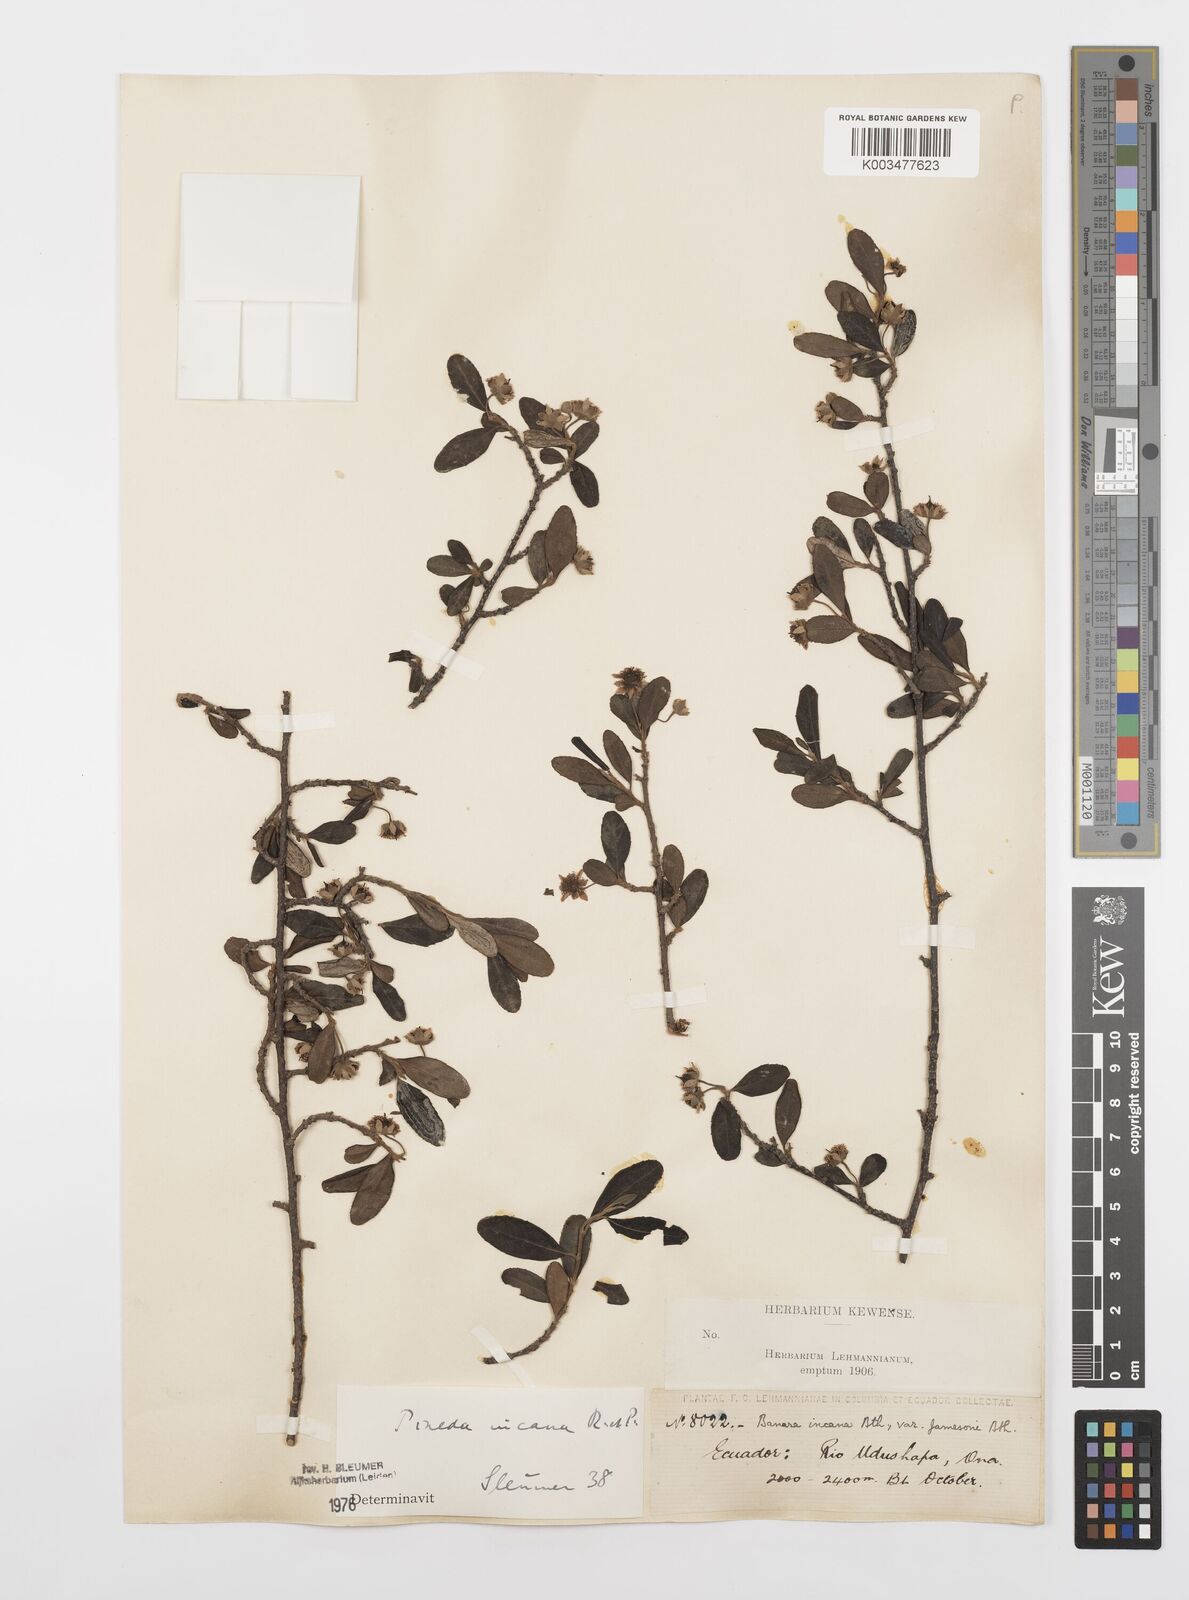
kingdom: Plantae
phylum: Tracheophyta
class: Magnoliopsida
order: Malpighiales
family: Salicaceae
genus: Pineda
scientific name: Pineda incana
